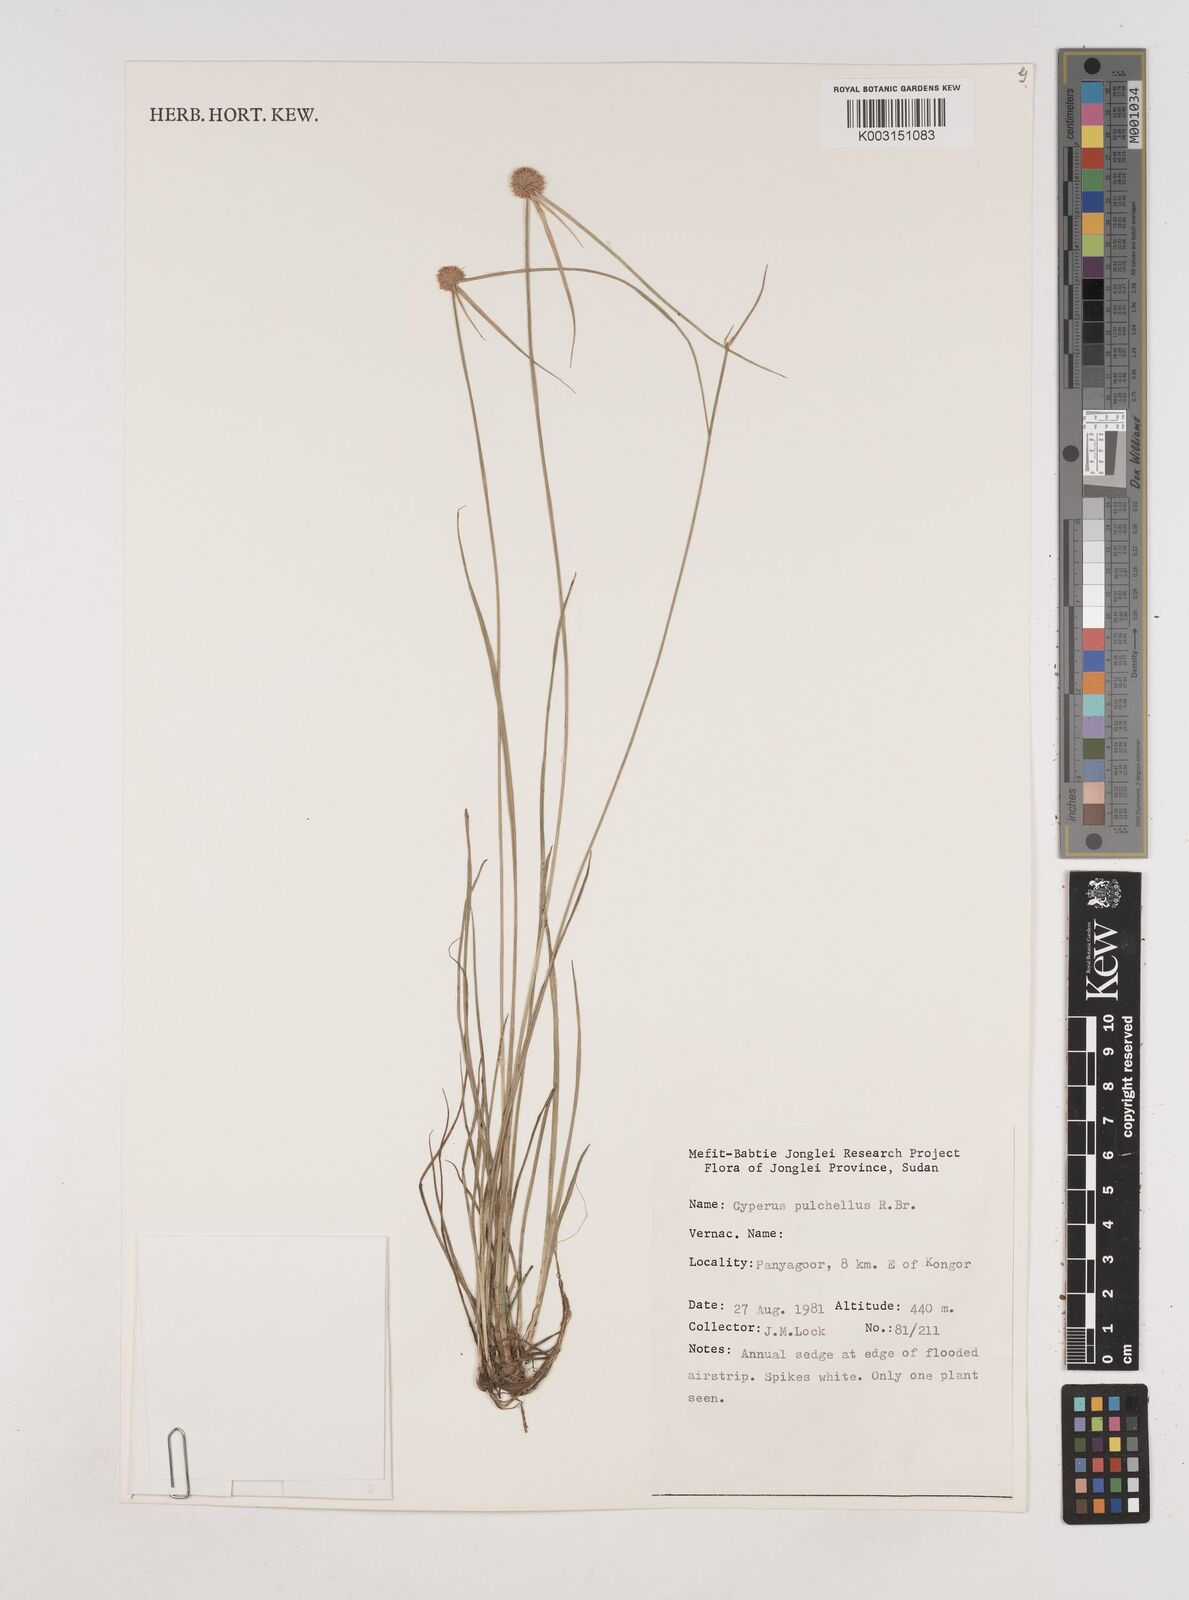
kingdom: Plantae
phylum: Tracheophyta
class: Liliopsida
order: Poales
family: Cyperaceae
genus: Cyperus
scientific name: Cyperus pulchellus
